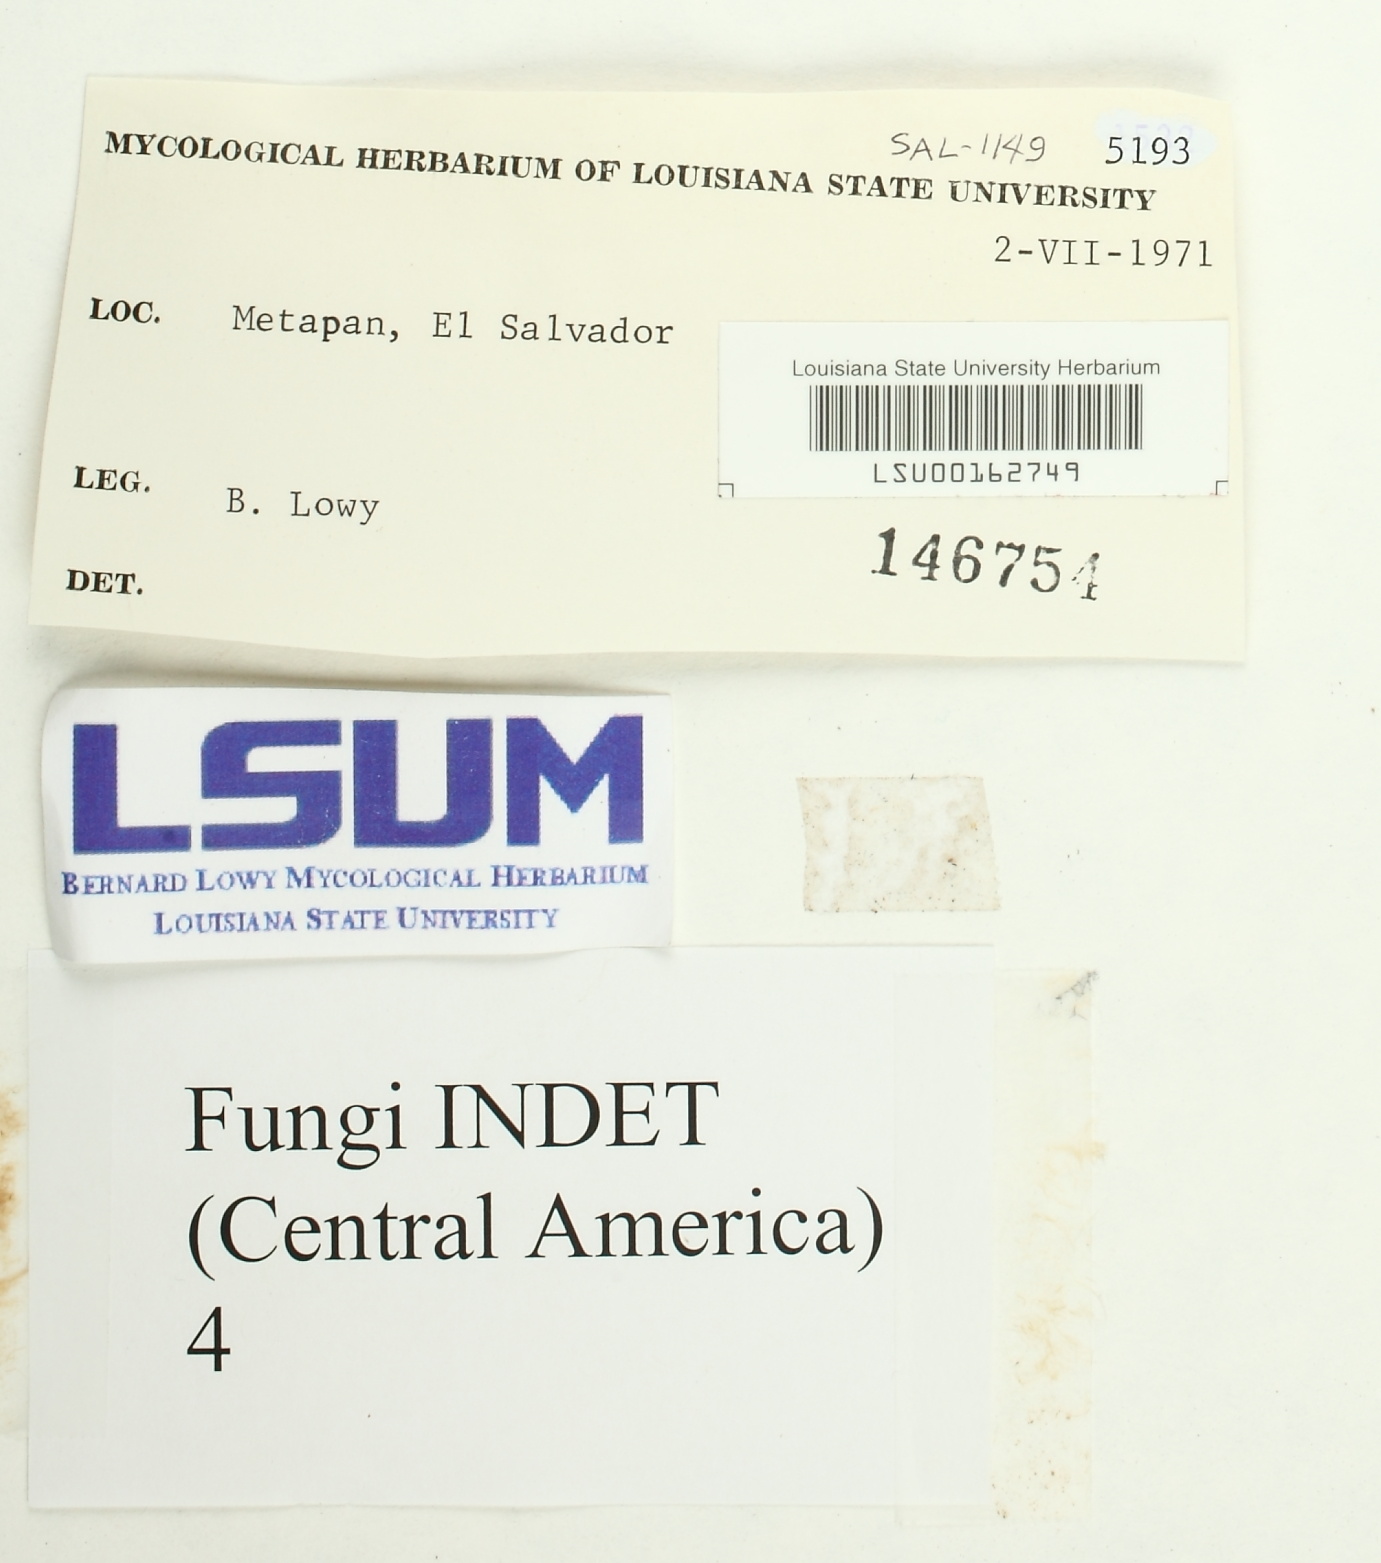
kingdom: Fungi
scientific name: Fungi
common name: Fungi
